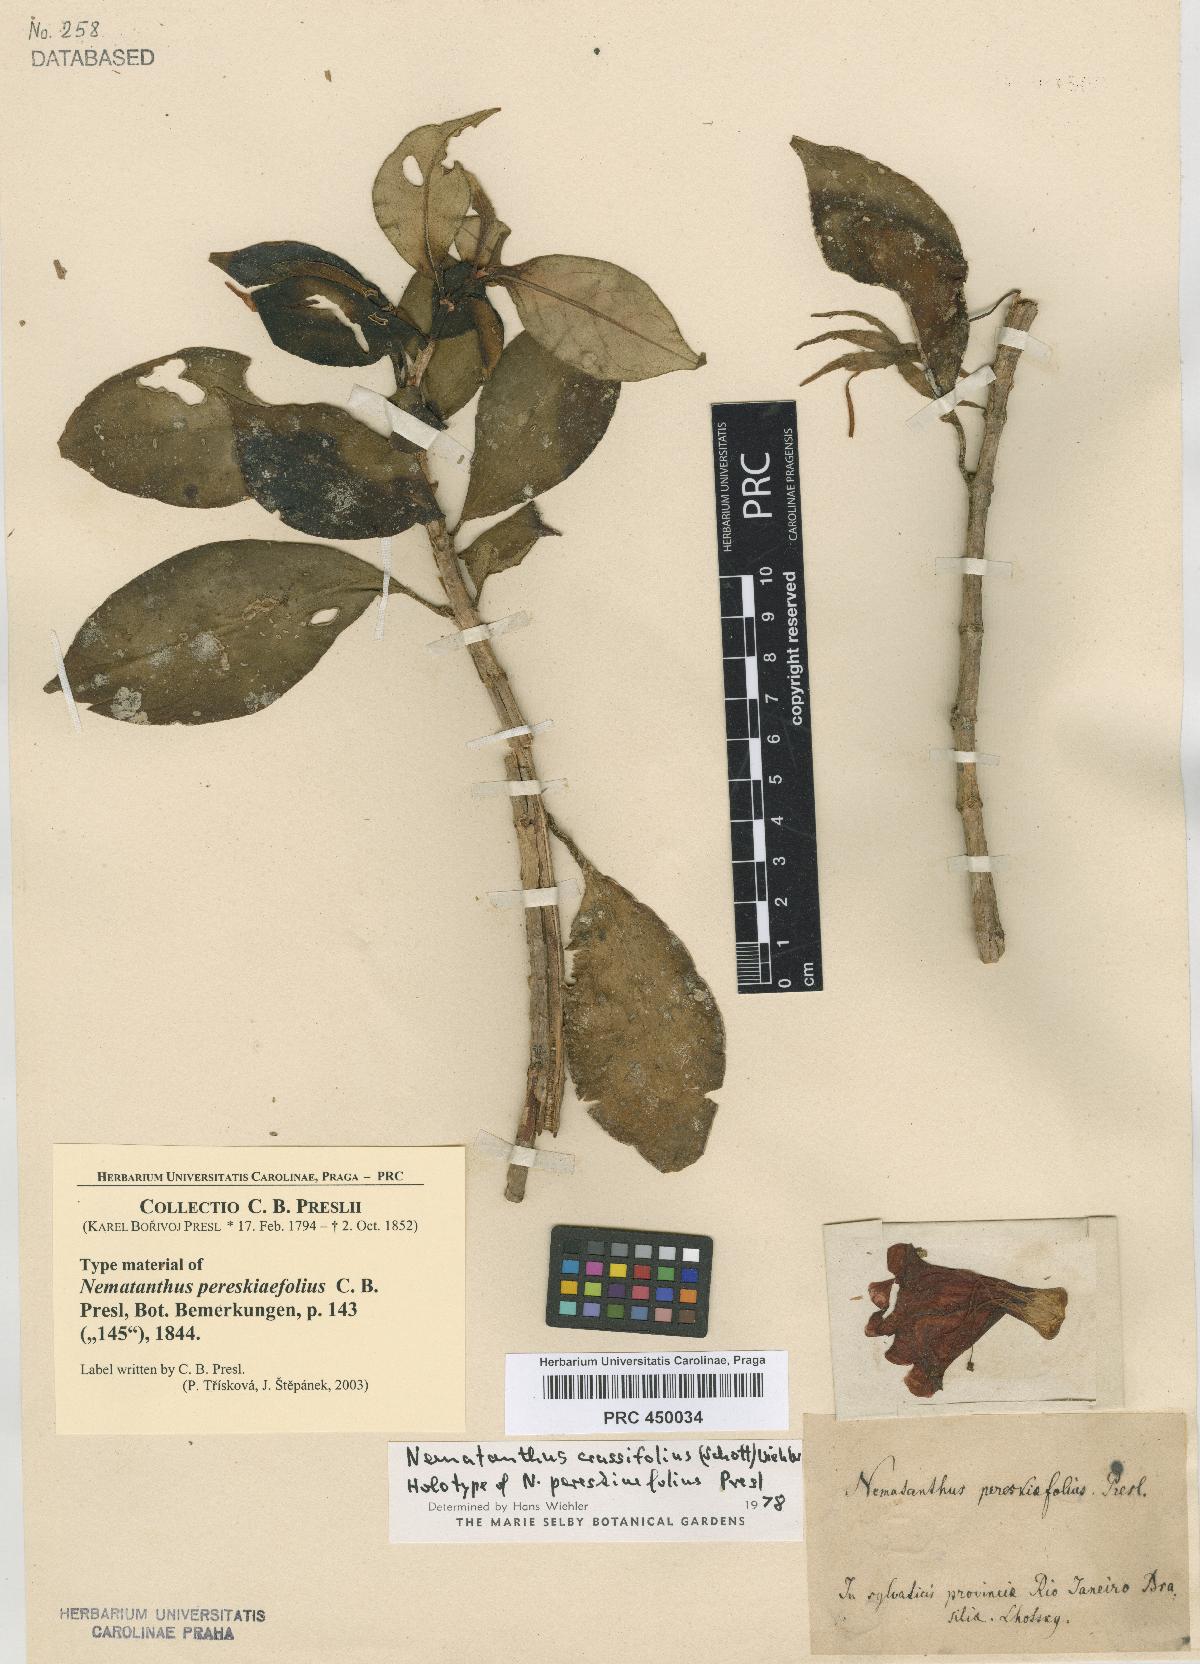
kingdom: Plantae
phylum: Tracheophyta
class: Magnoliopsida
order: Lamiales
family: Gesneriaceae
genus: Nematanthus
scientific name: Nematanthus crassifolius
